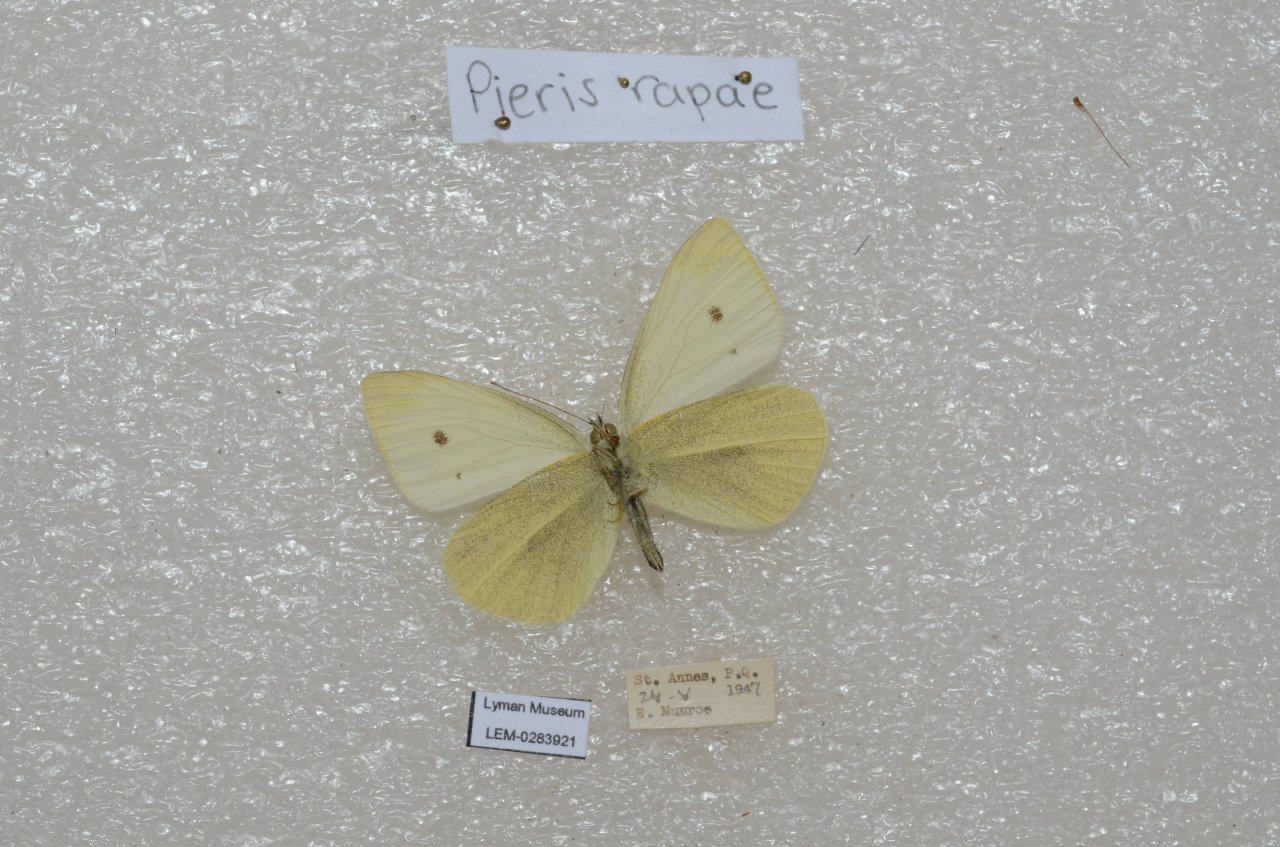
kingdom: Animalia
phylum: Arthropoda
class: Insecta
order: Lepidoptera
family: Pieridae
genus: Pieris
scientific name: Pieris rapae
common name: Cabbage White
